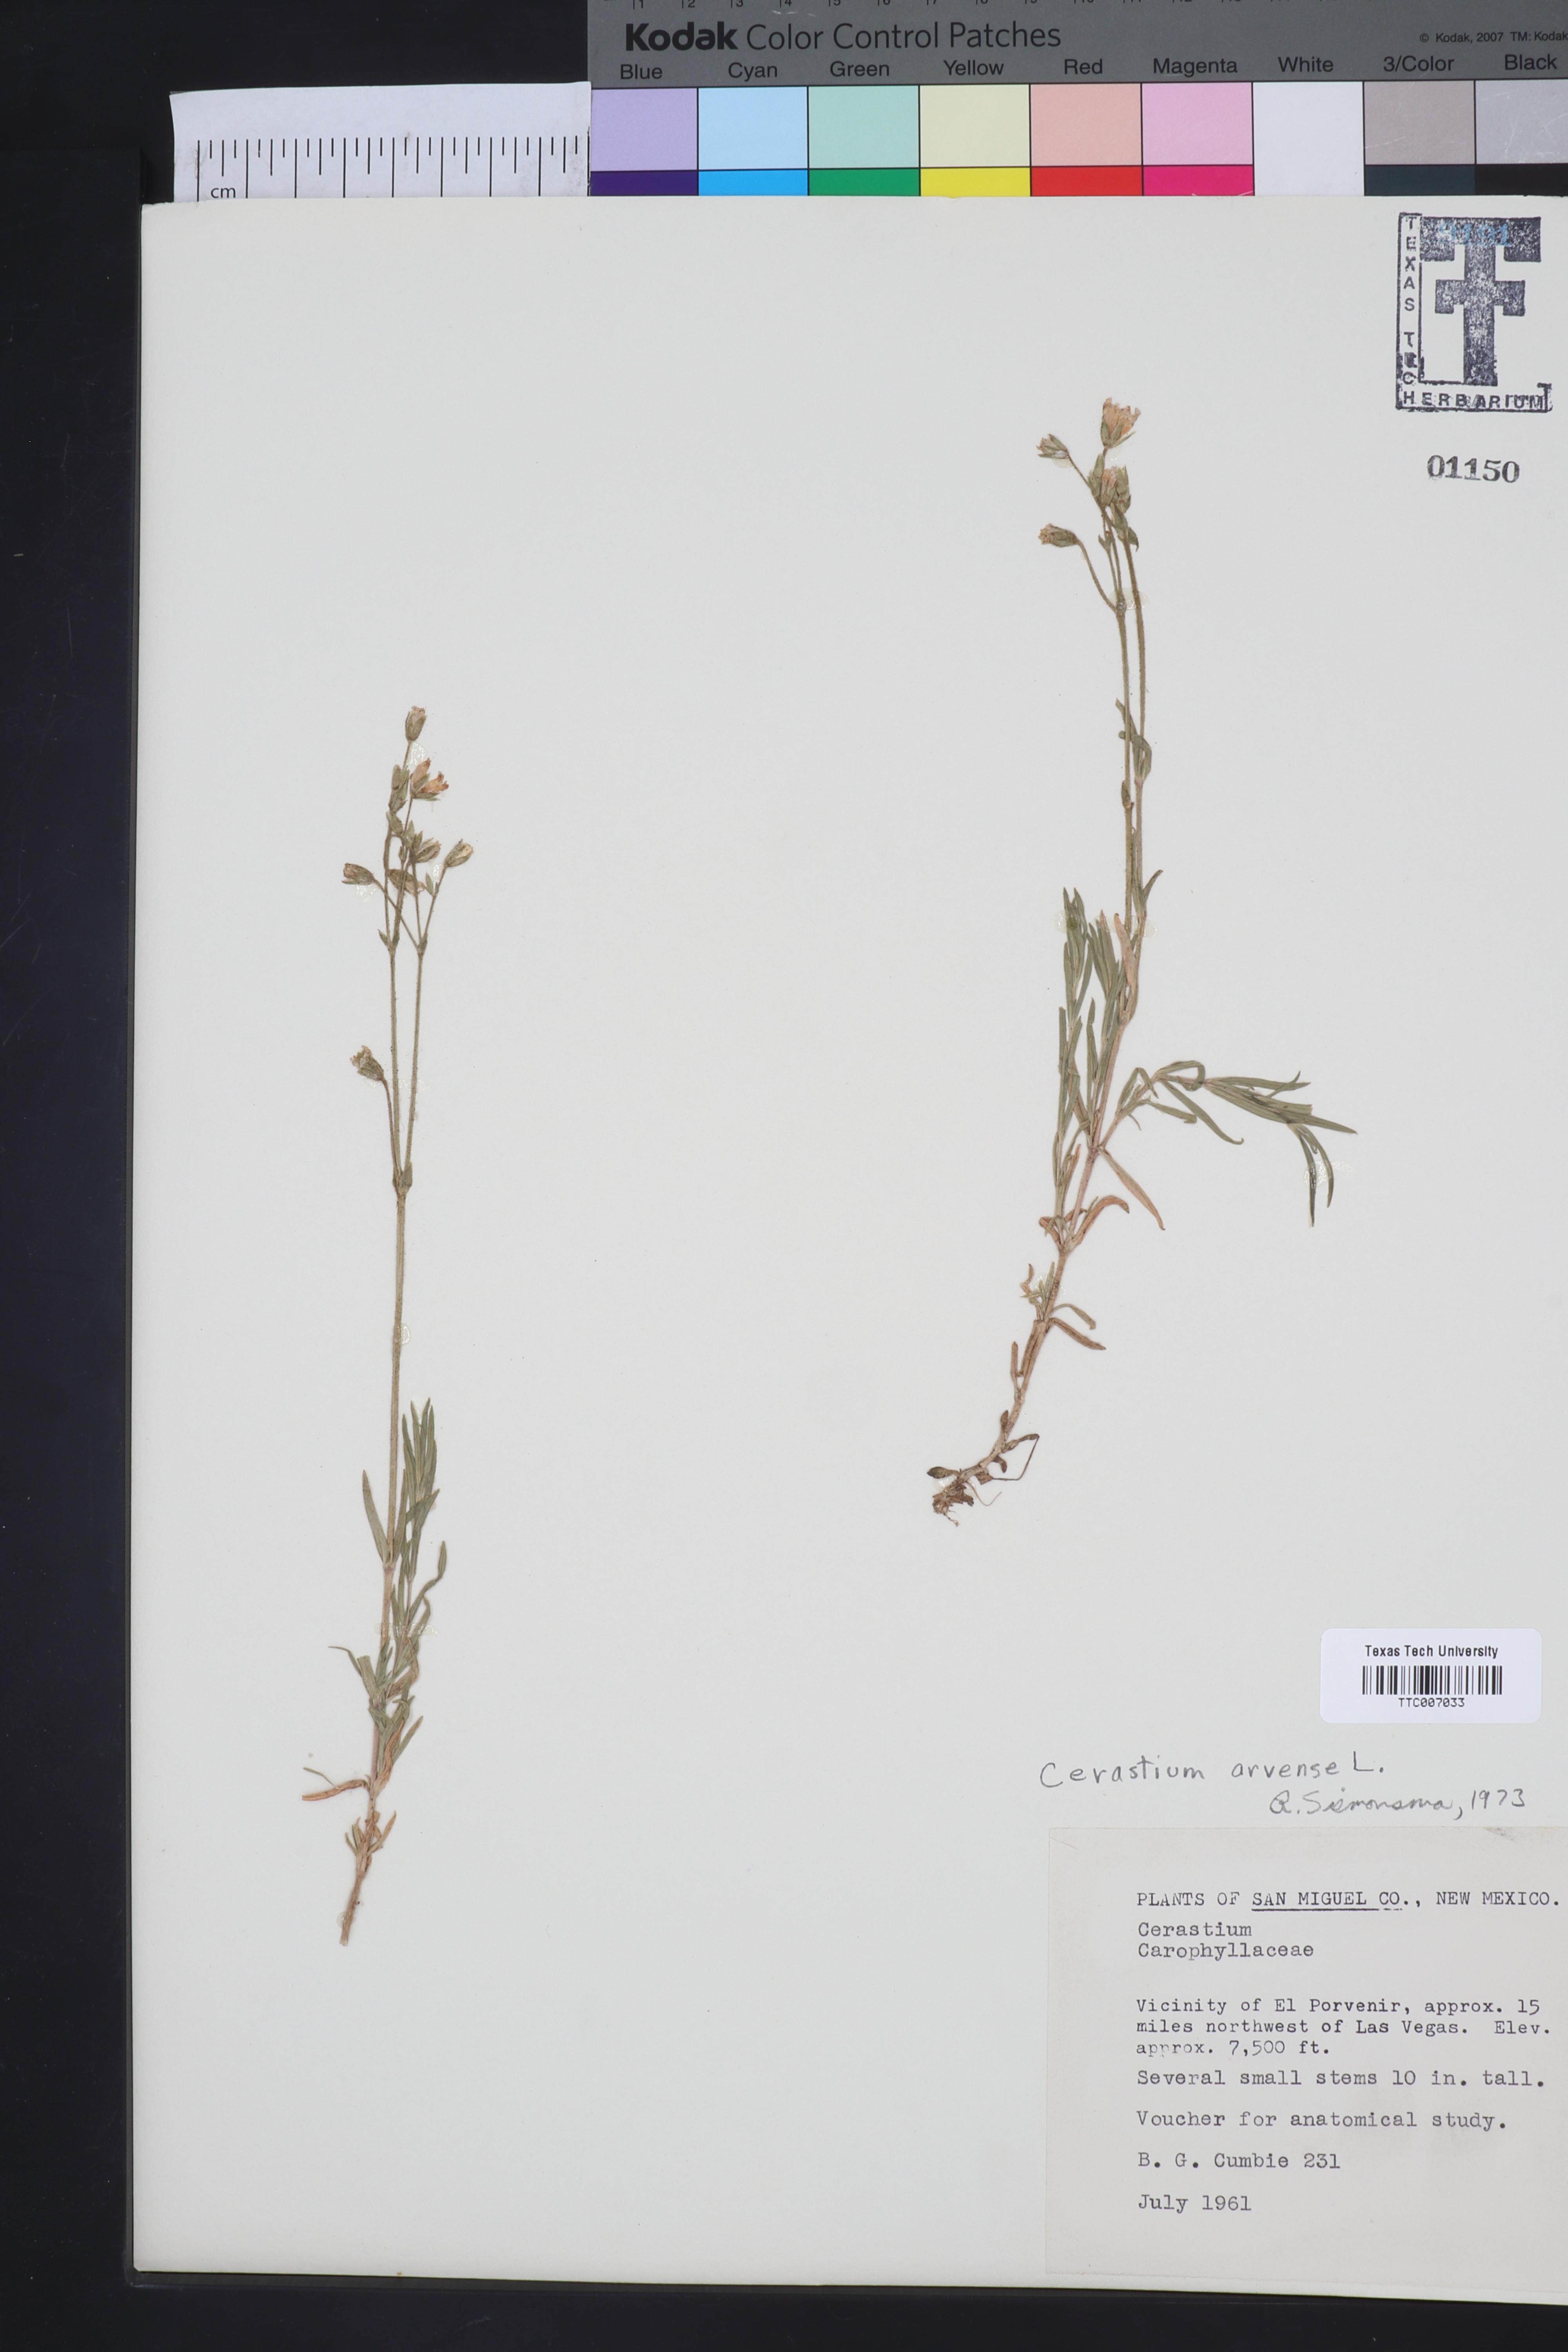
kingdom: Plantae
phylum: Tracheophyta
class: Magnoliopsida
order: Caryophyllales
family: Caryophyllaceae
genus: Cerastium
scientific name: Cerastium arvense
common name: Field mouse-ear
